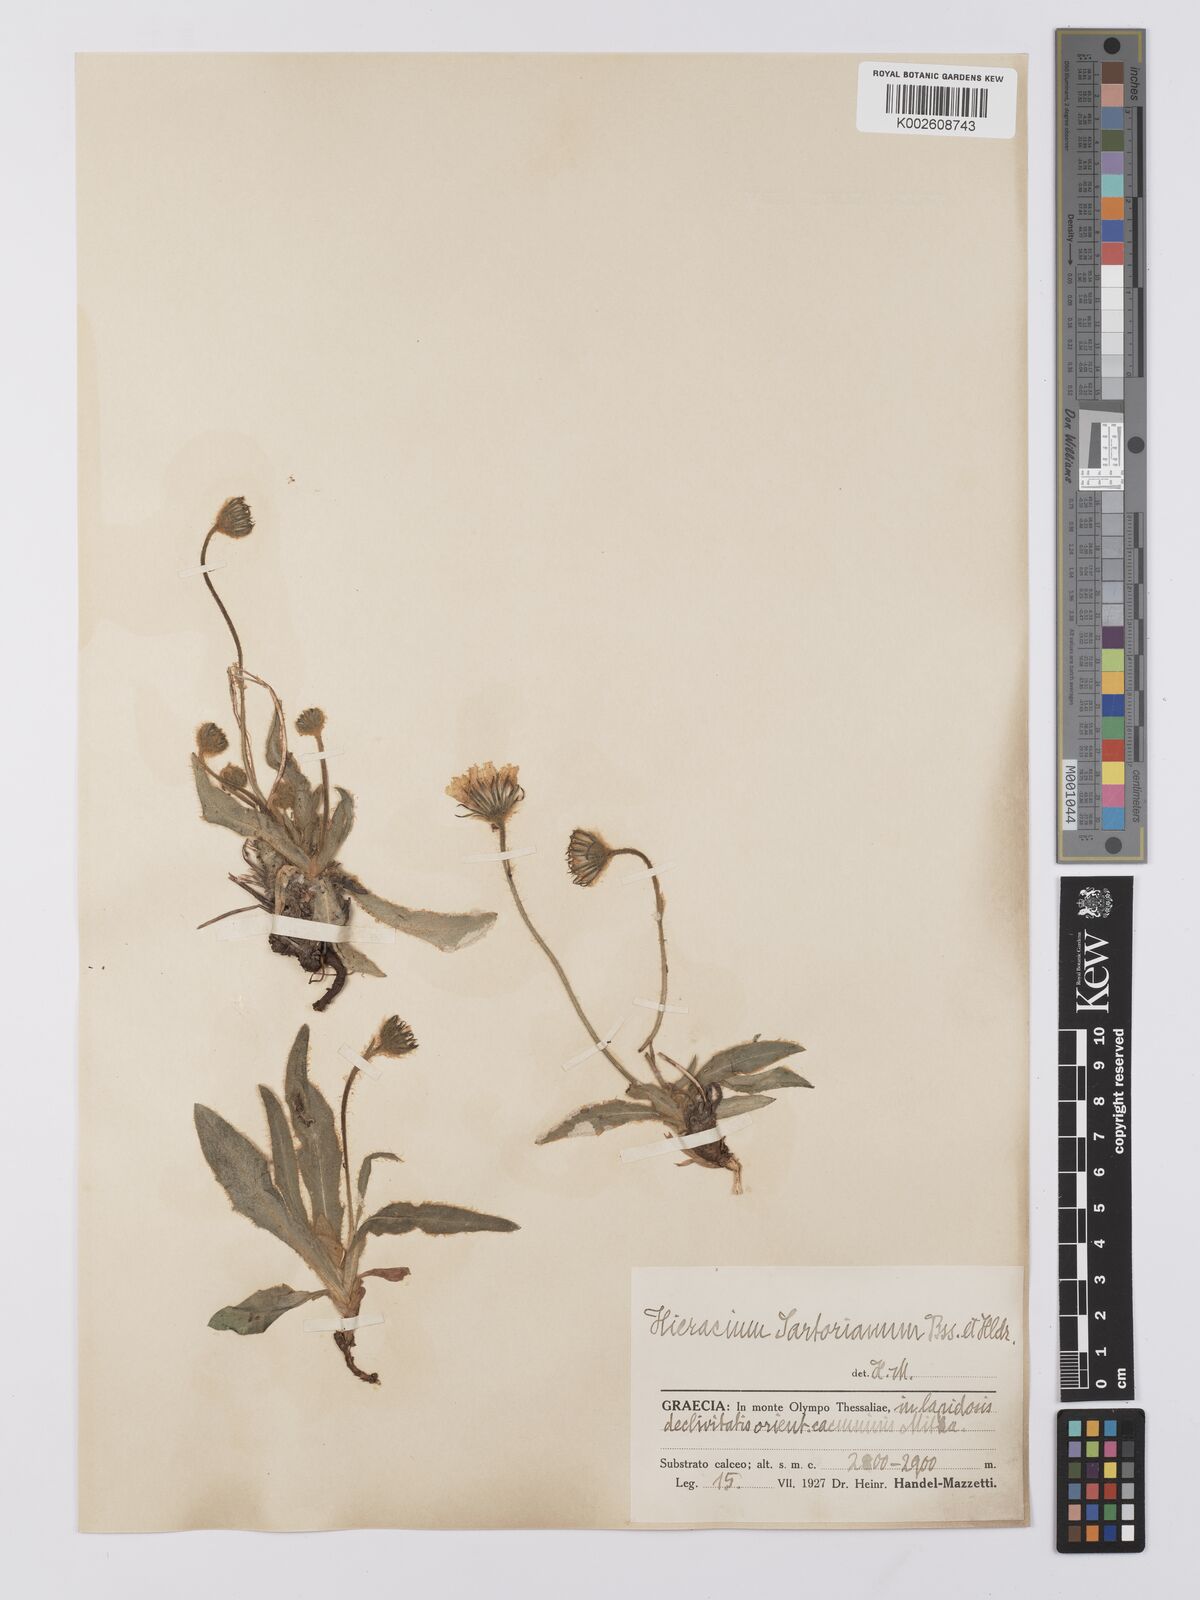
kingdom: Plantae
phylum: Tracheophyta
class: Magnoliopsida
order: Asterales
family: Asteraceae
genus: Hieracium
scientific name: Hieracium sartorianum
